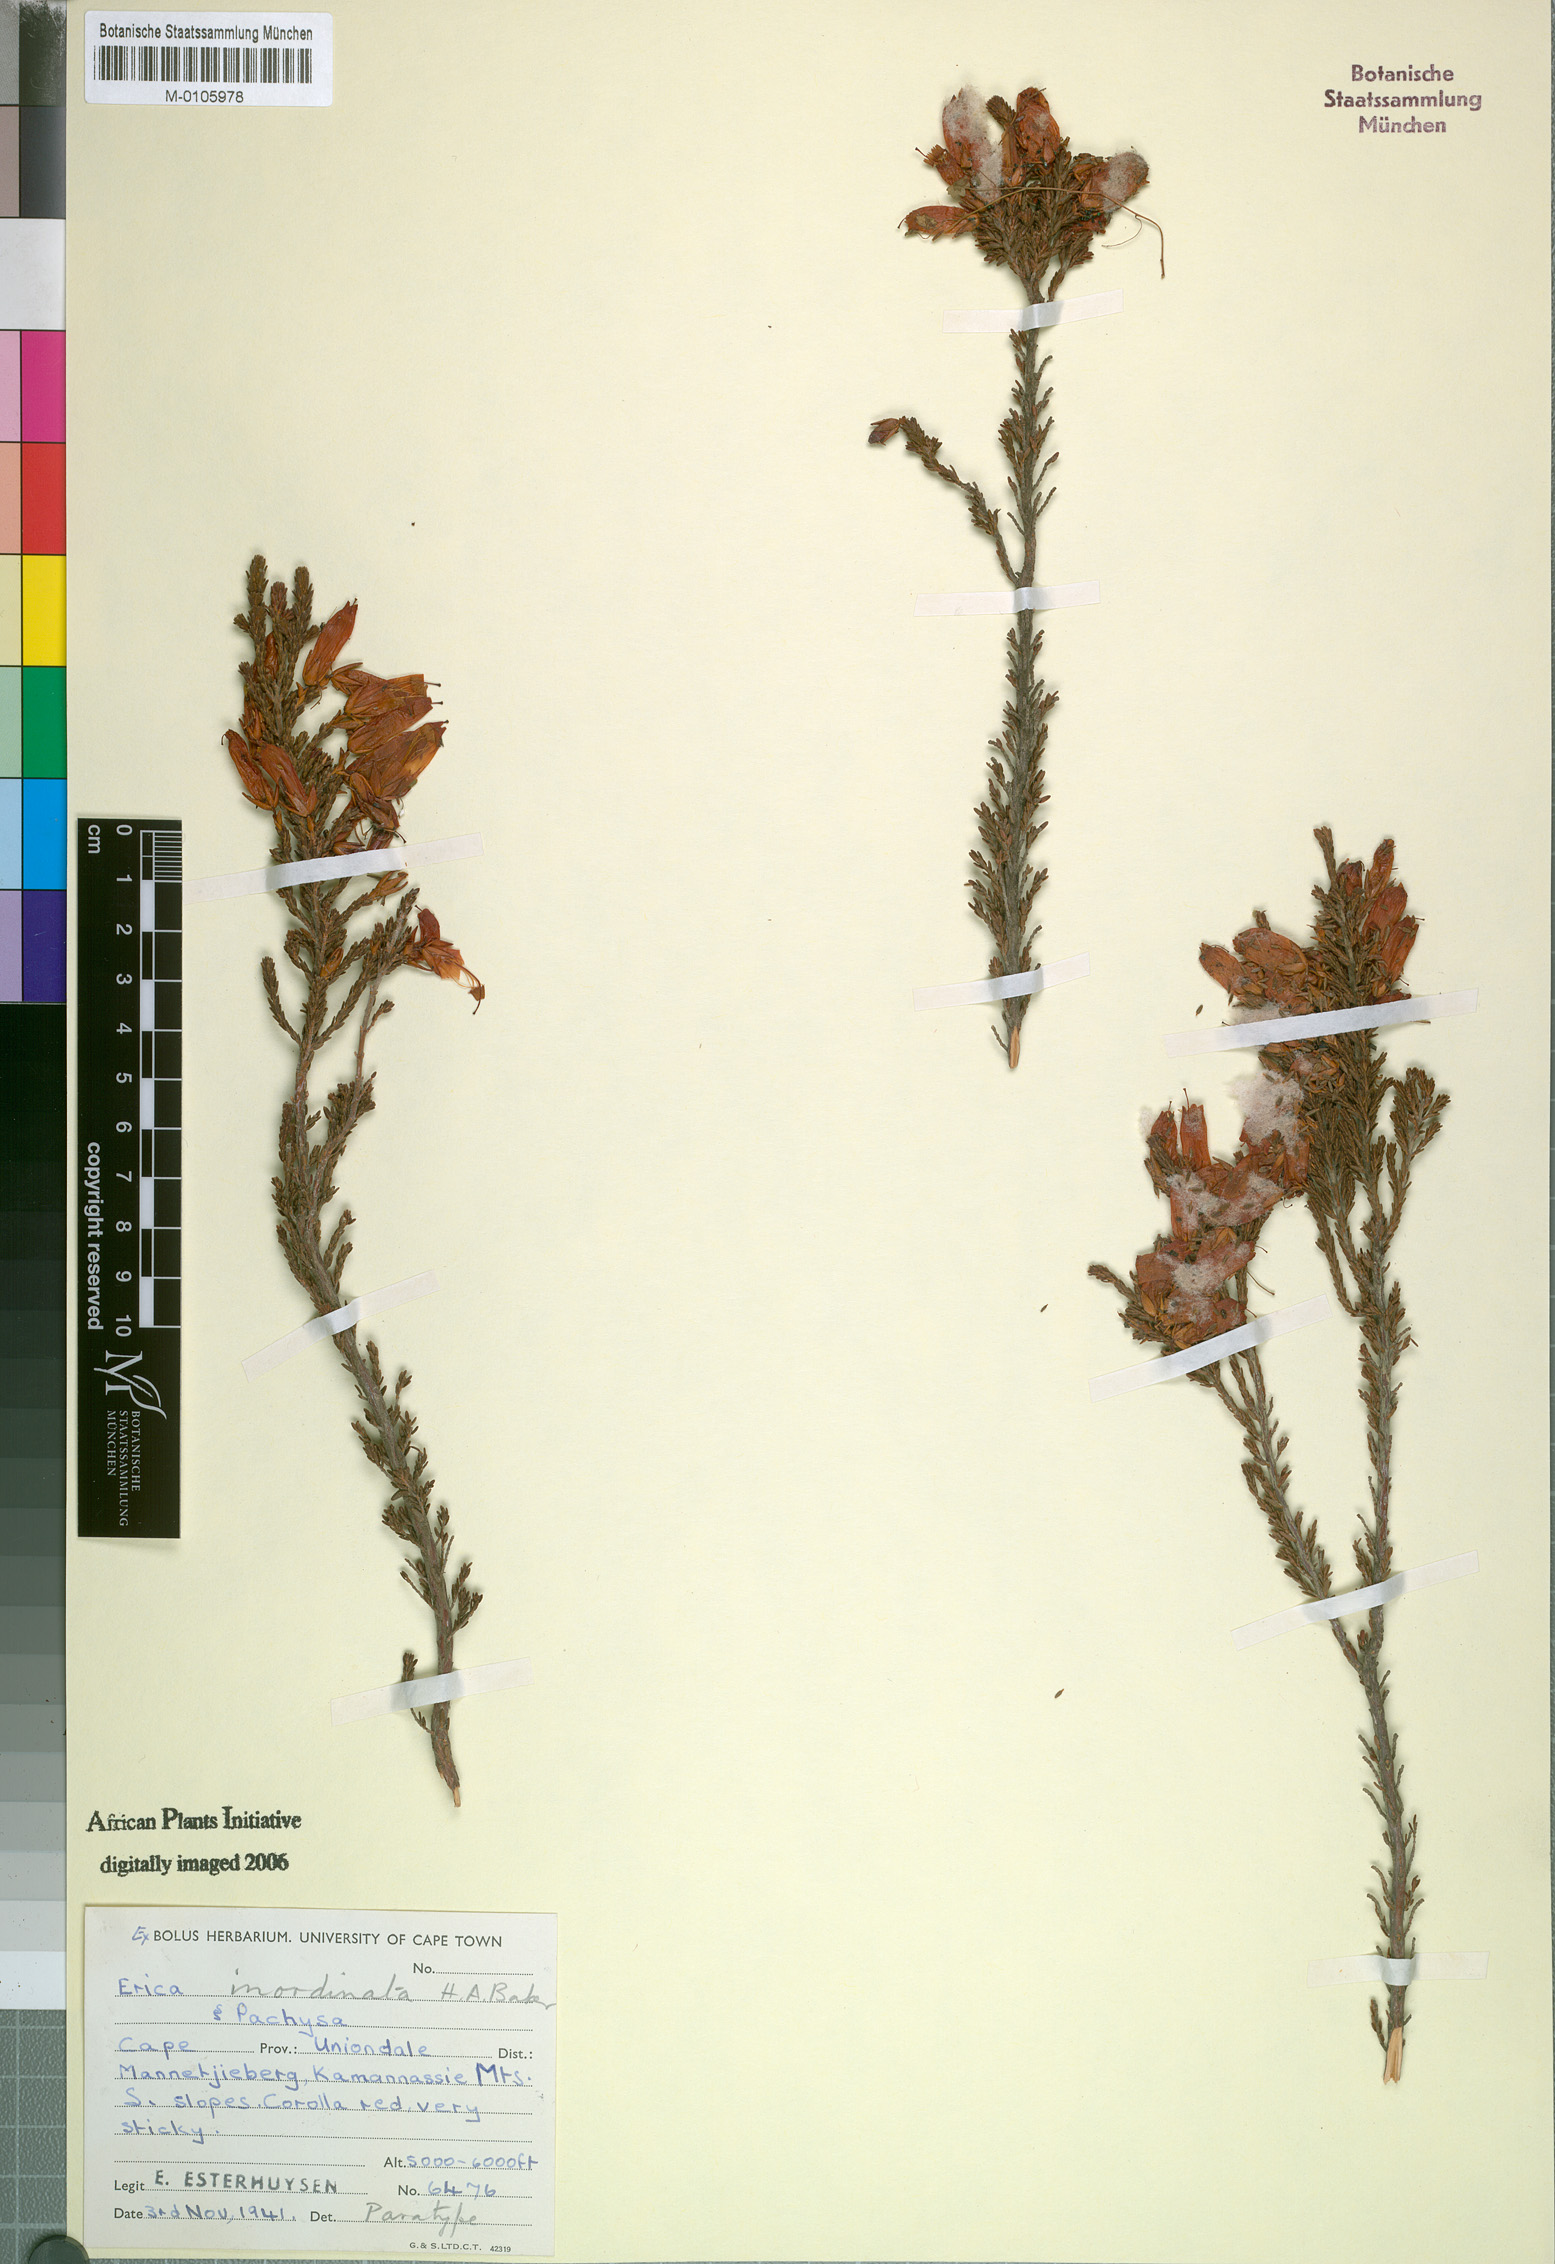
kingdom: Plantae
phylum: Tracheophyta
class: Magnoliopsida
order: Ericales
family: Ericaceae
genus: Erica
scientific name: Erica inordinata
